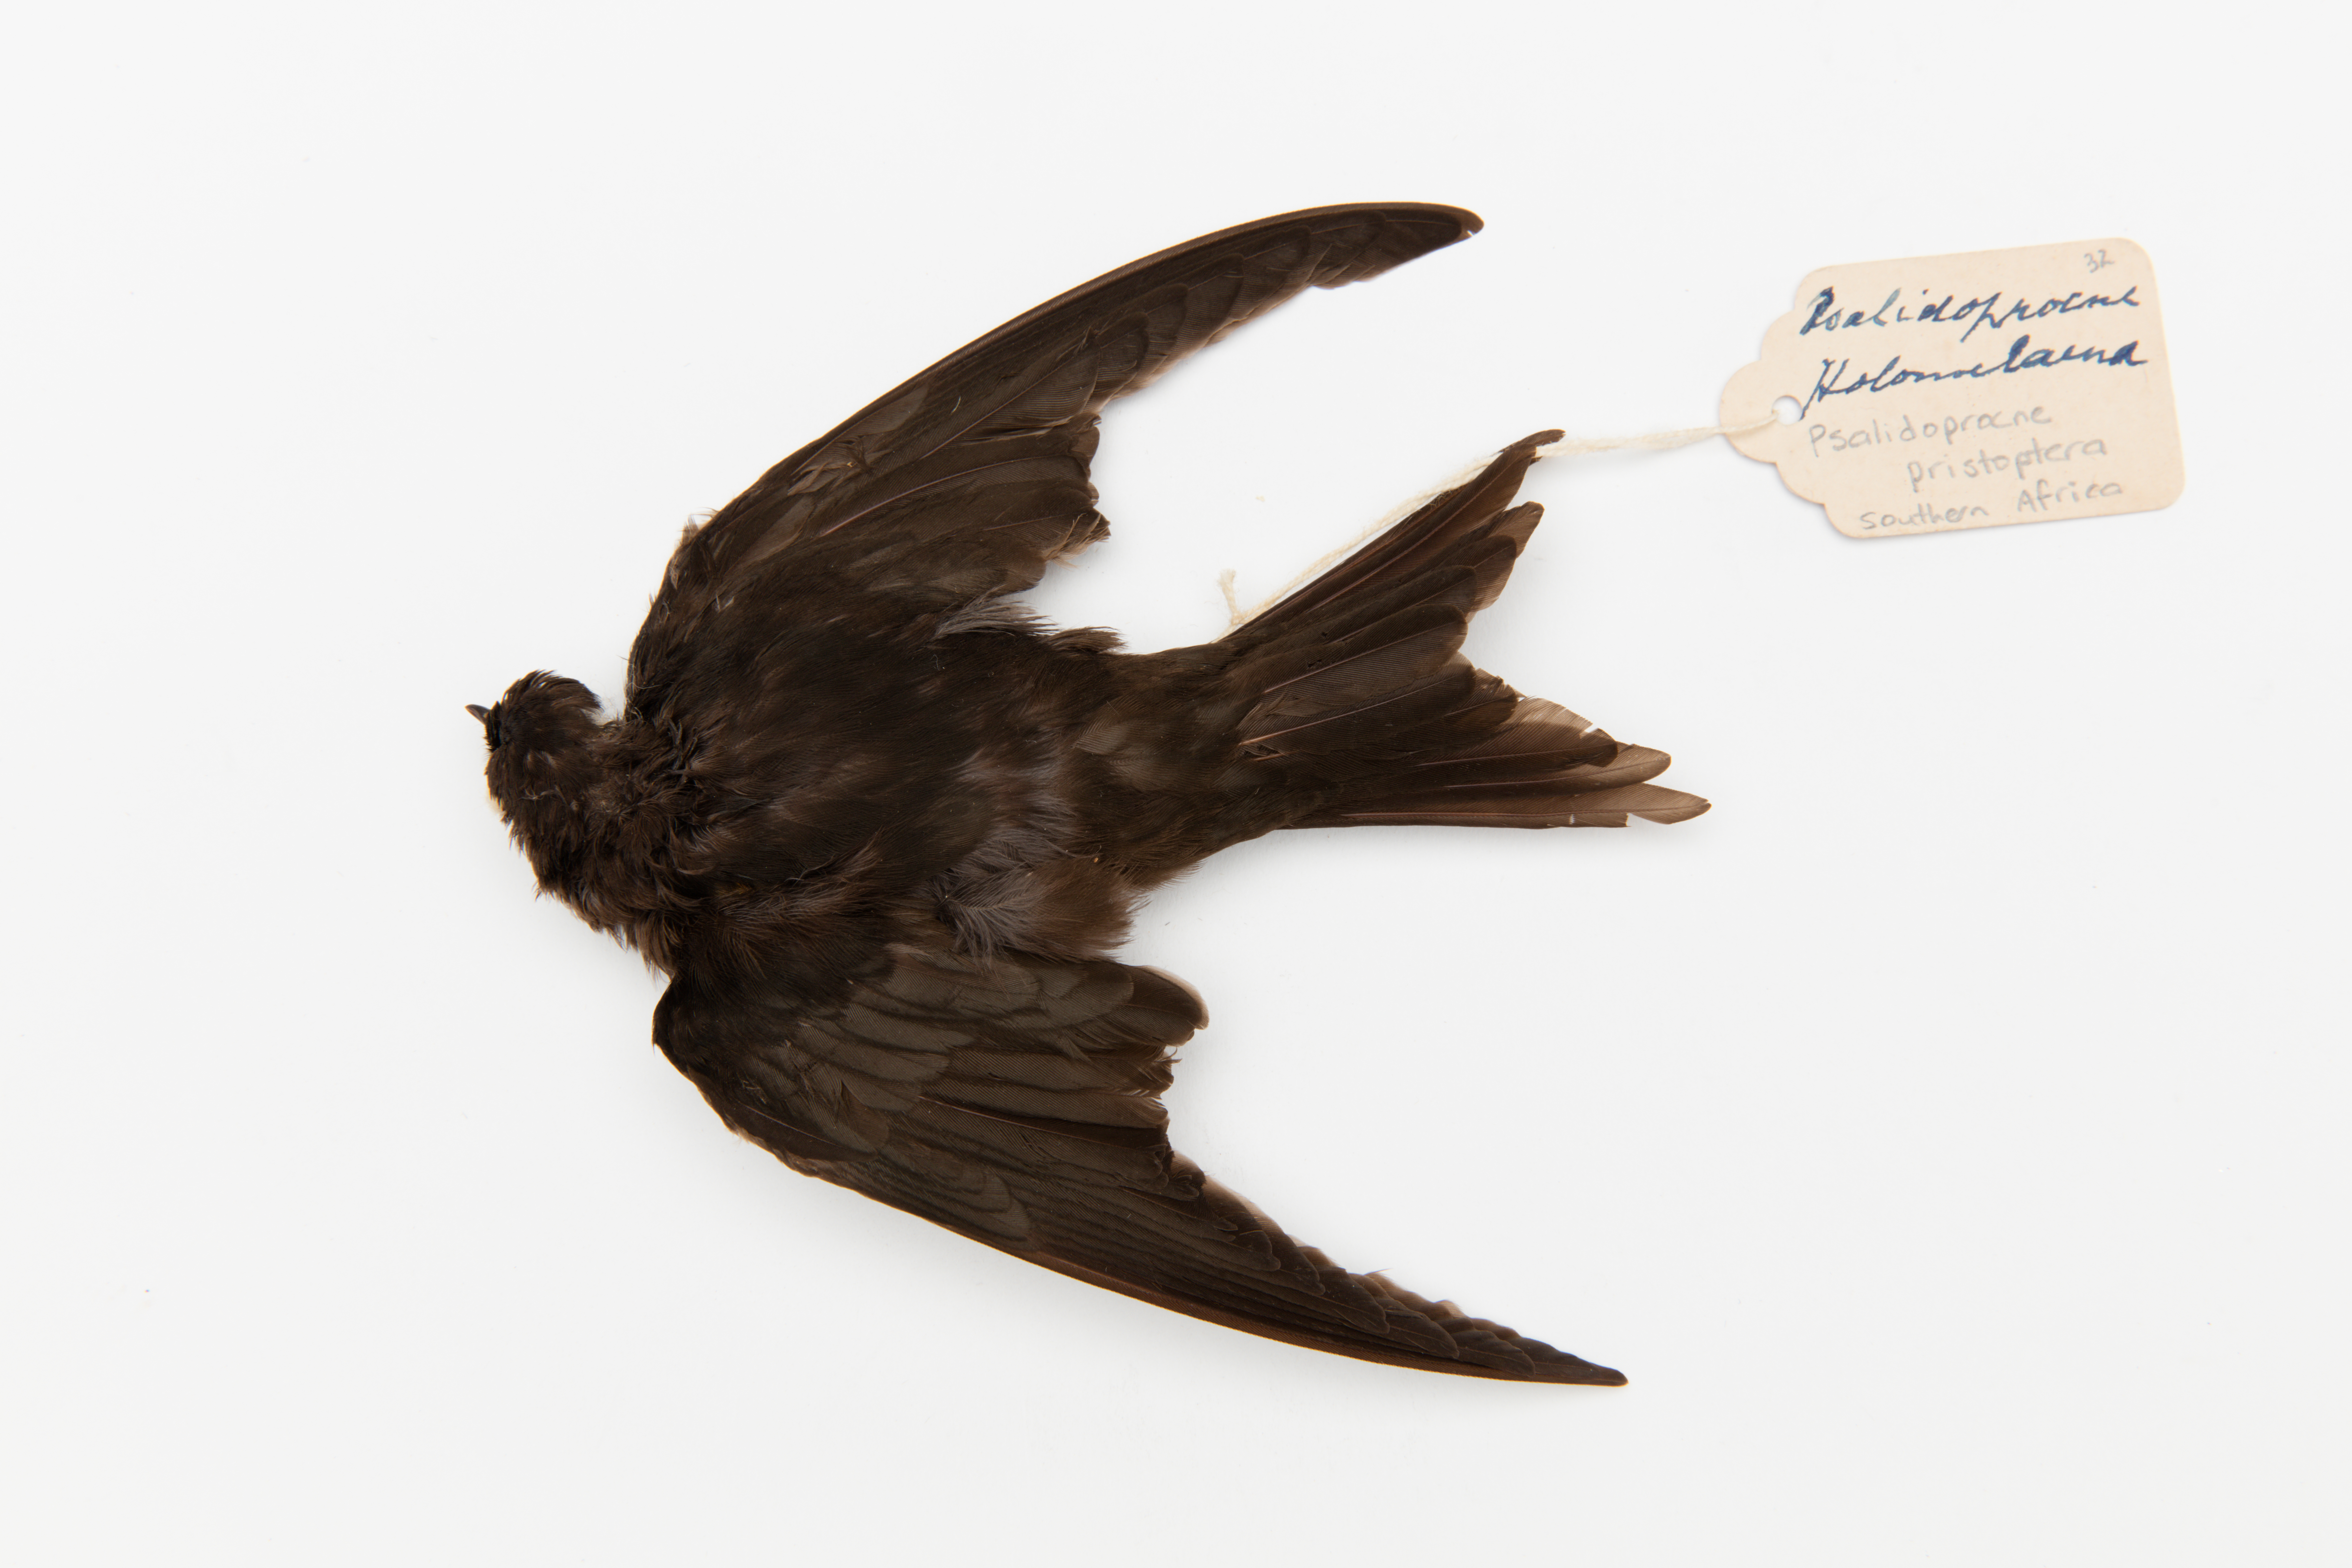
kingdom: Animalia
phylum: Chordata
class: Aves
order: Passeriformes
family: Hirundinidae
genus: Psalidoprocne
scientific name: Psalidoprocne pristoptera
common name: Black saw-wing
